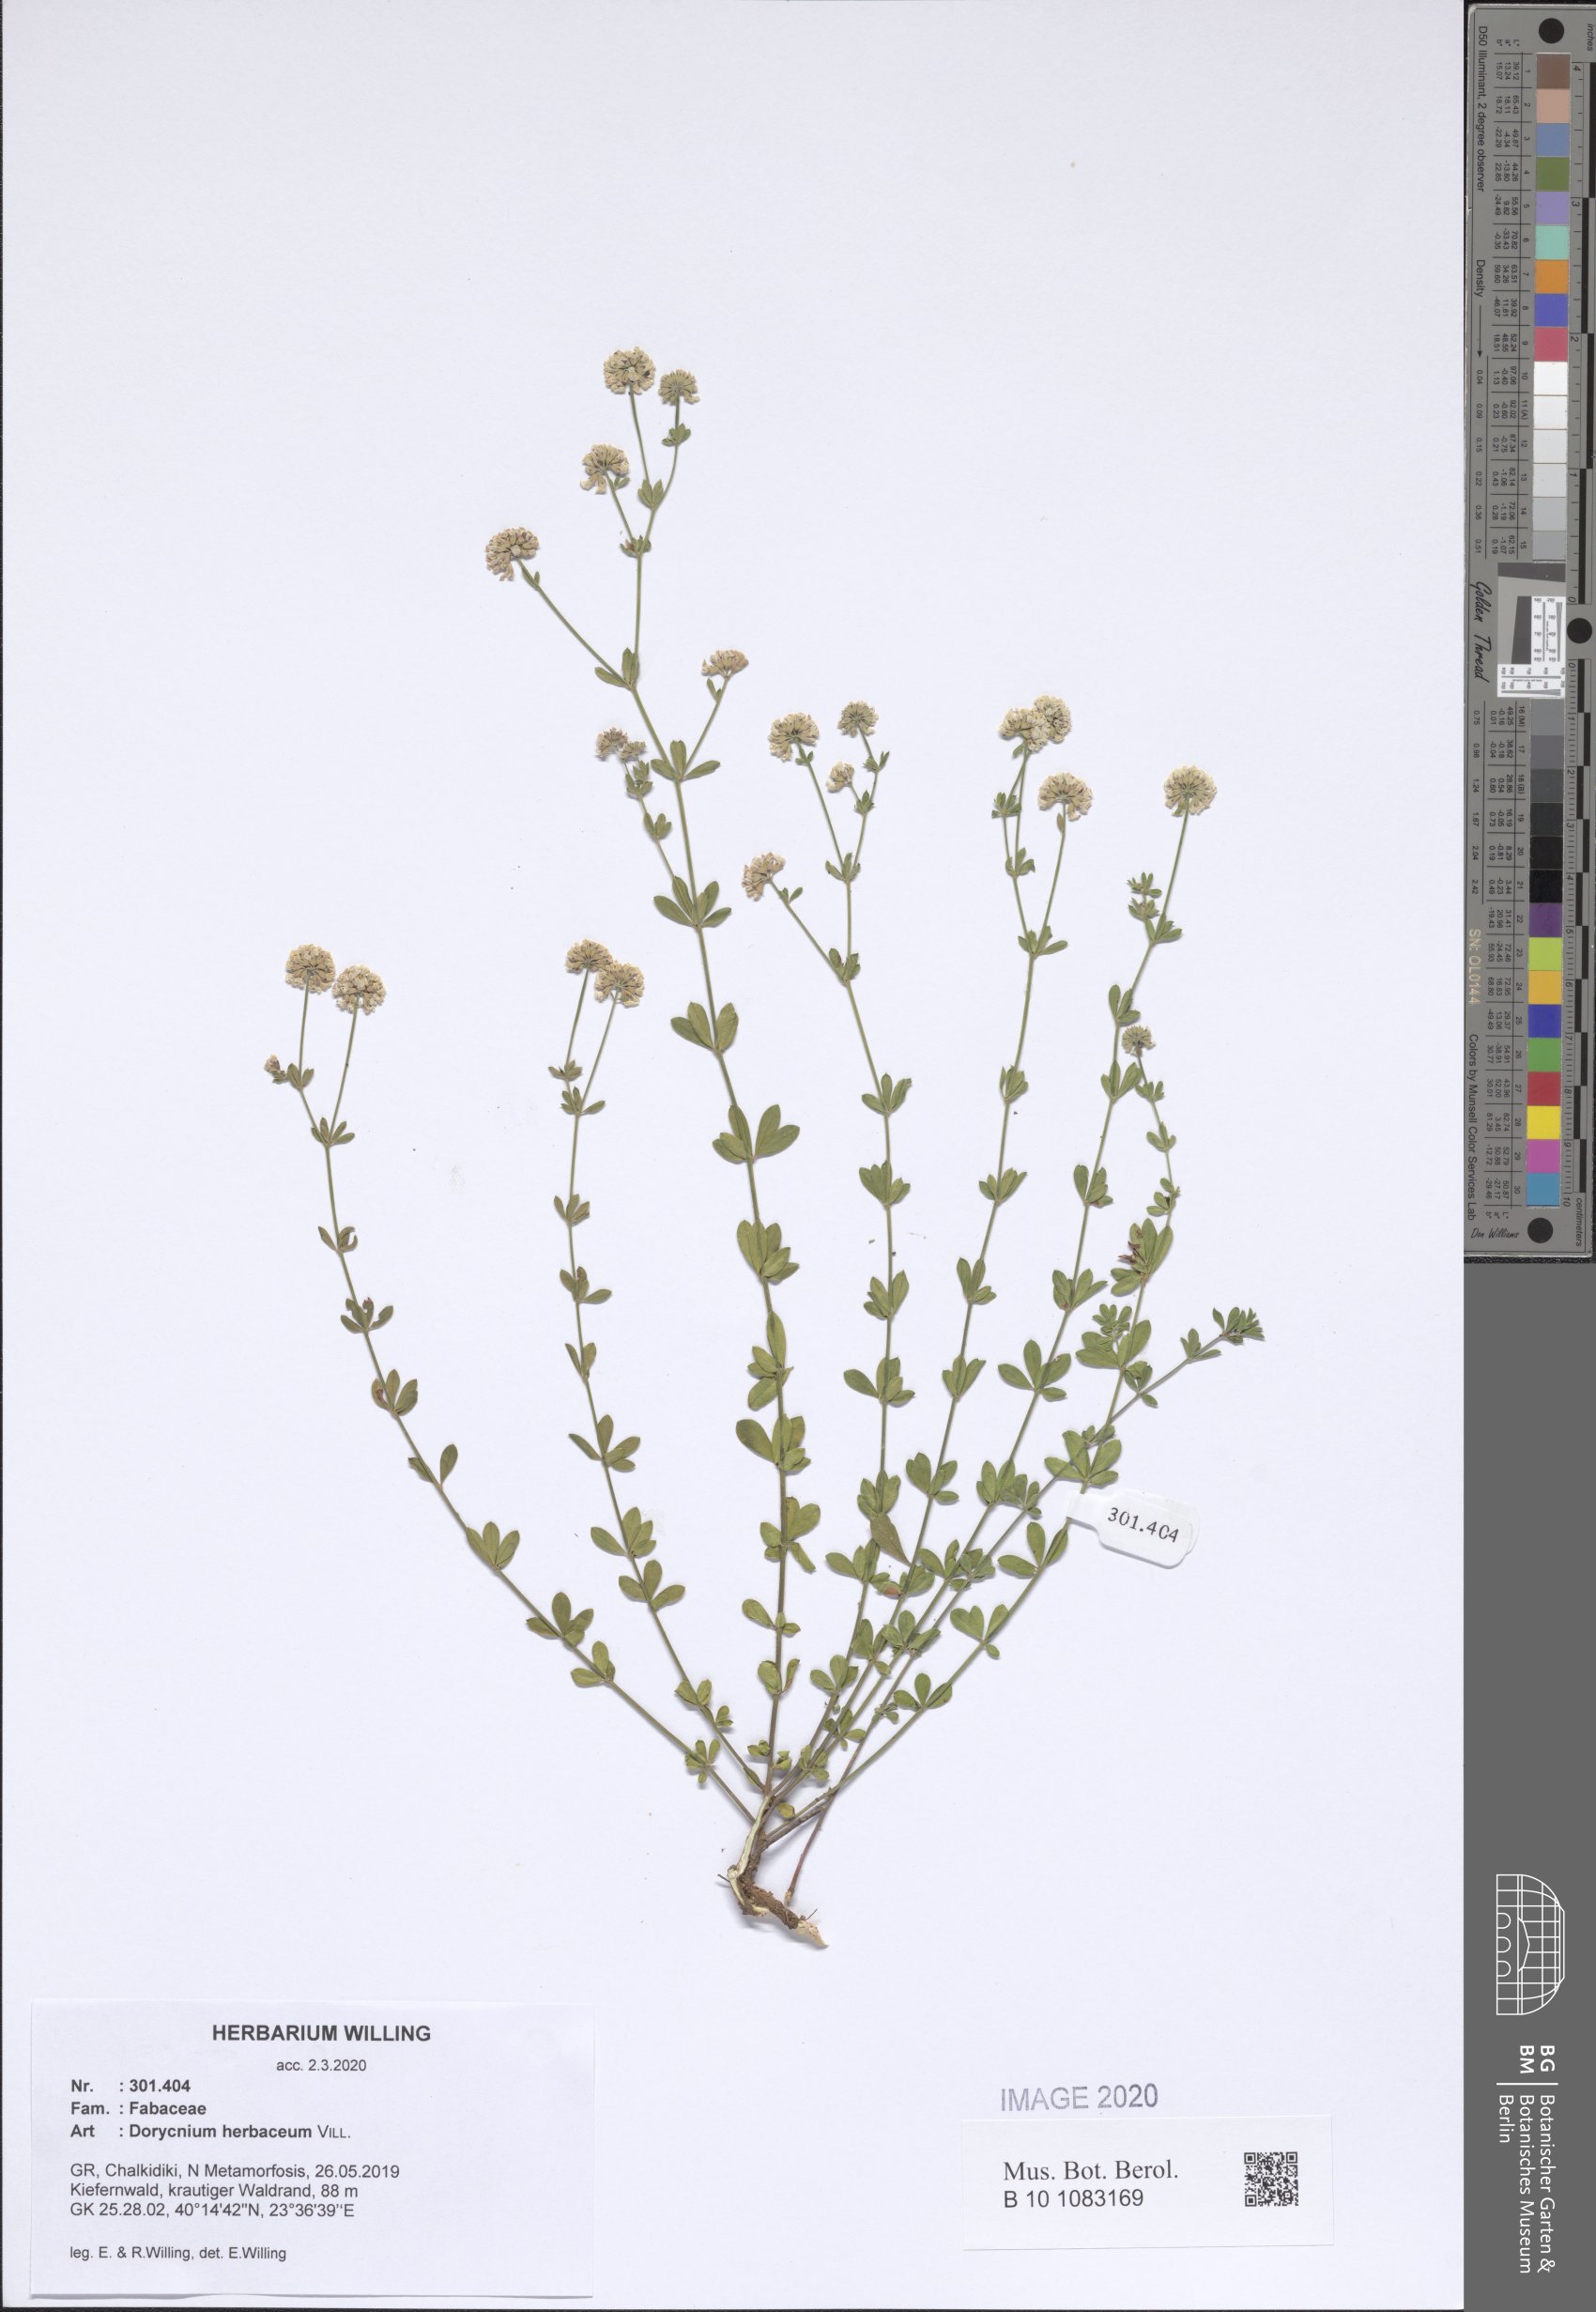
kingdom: Plantae
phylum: Tracheophyta
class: Magnoliopsida
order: Fabales
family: Fabaceae
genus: Lotus
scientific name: Lotus herbaceus
